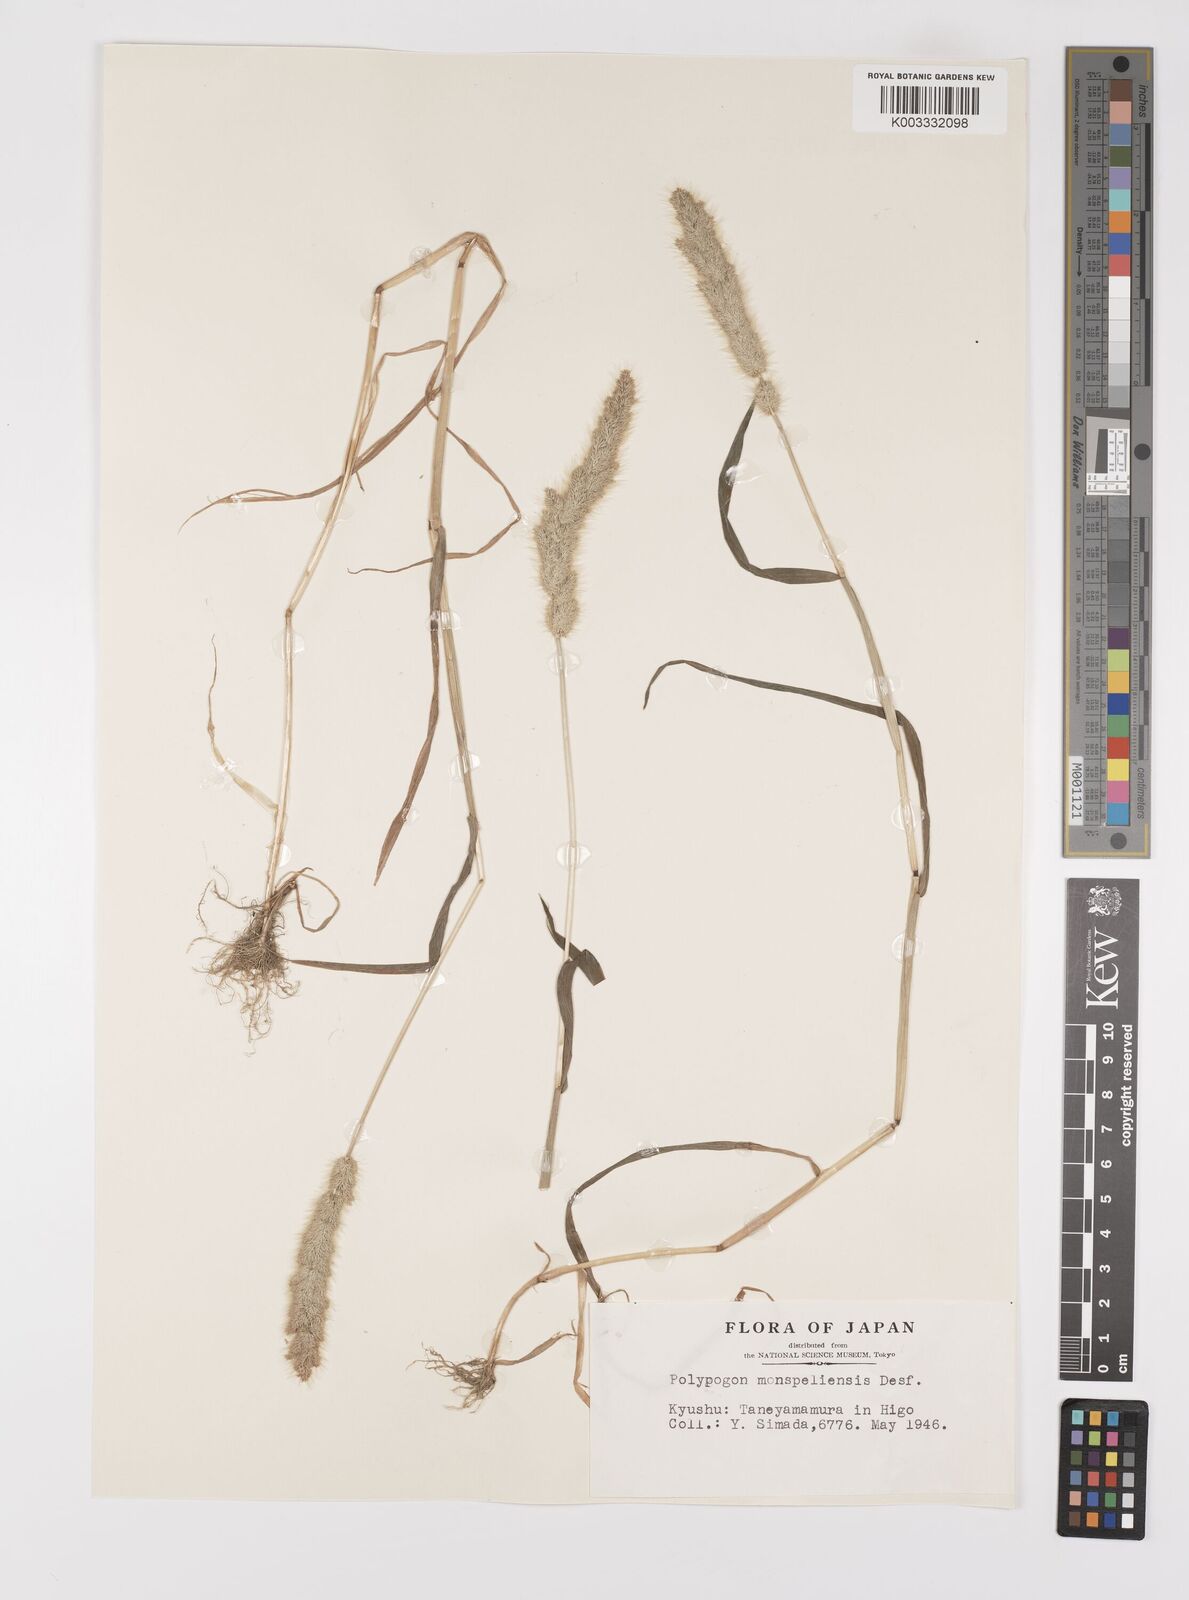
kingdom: Plantae
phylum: Tracheophyta
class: Liliopsida
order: Poales
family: Poaceae
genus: Polypogon
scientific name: Polypogon monspeliensis
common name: Annual rabbitsfoot grass
